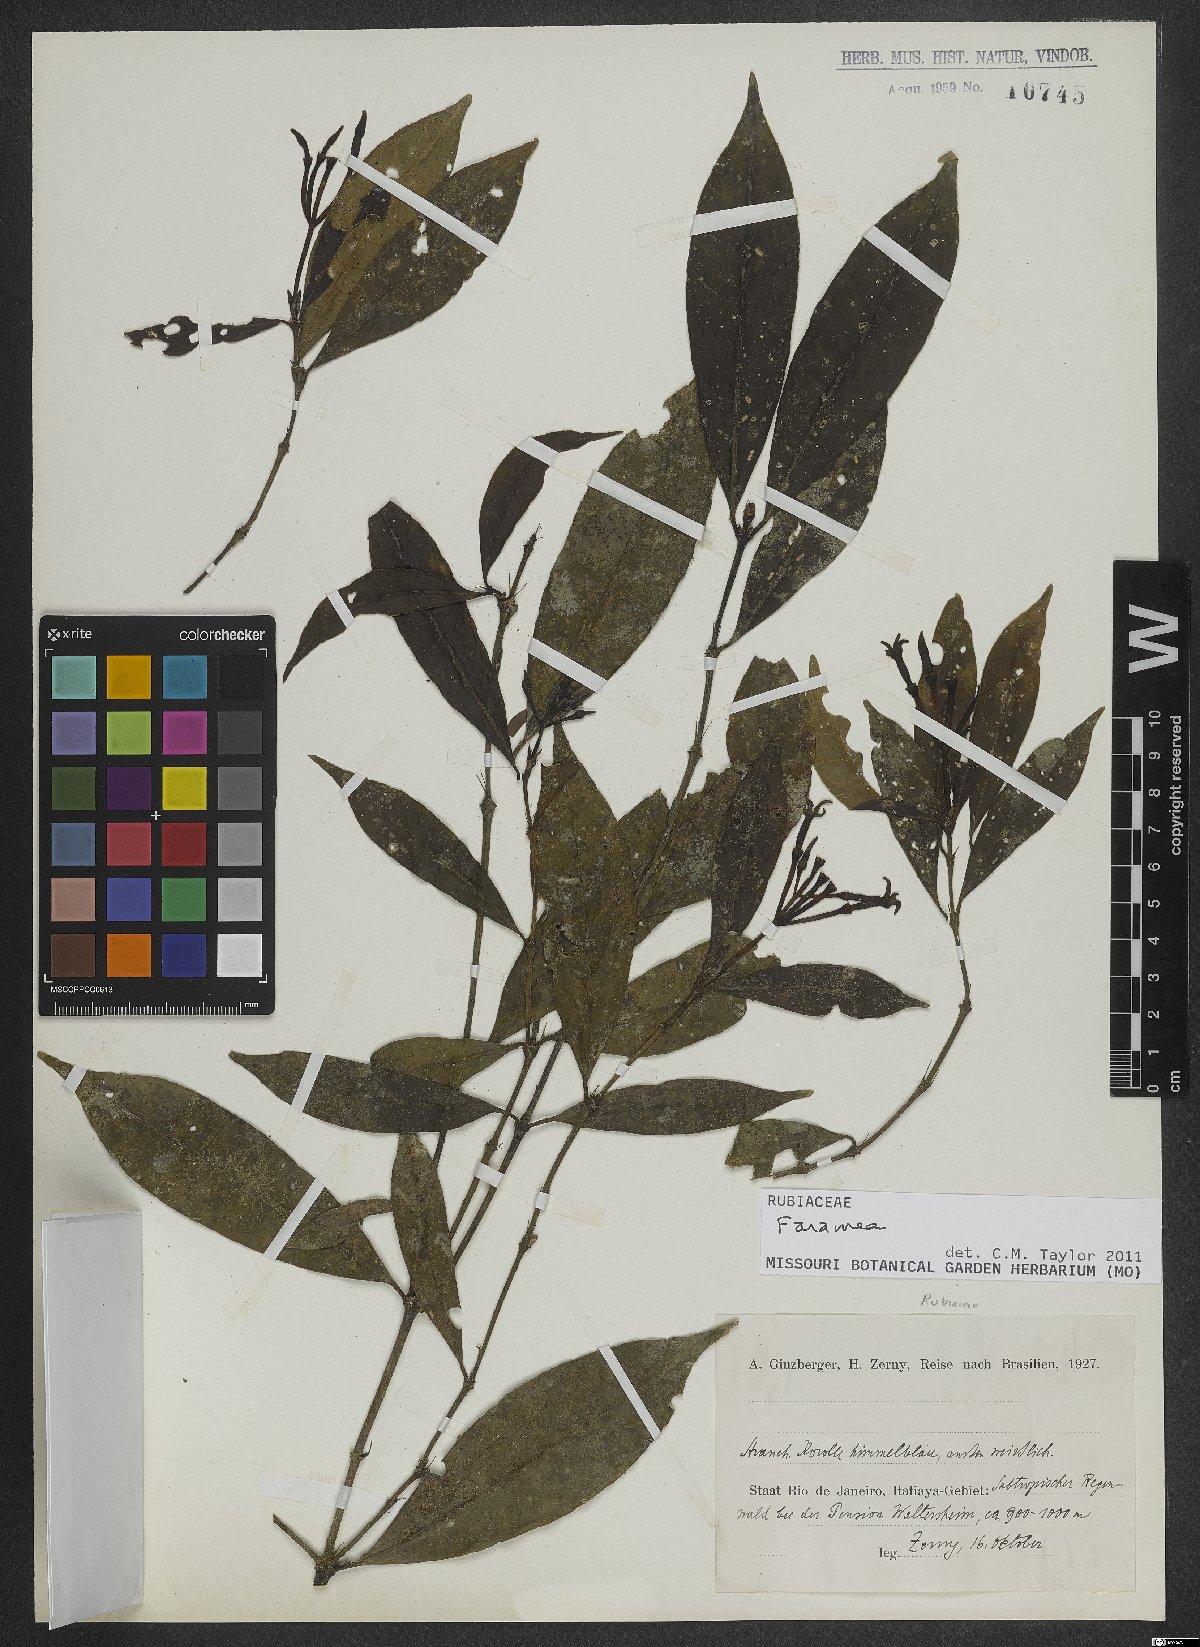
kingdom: Plantae
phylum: Tracheophyta
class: Magnoliopsida
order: Gentianales
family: Rubiaceae
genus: Faramea
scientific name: Faramea
